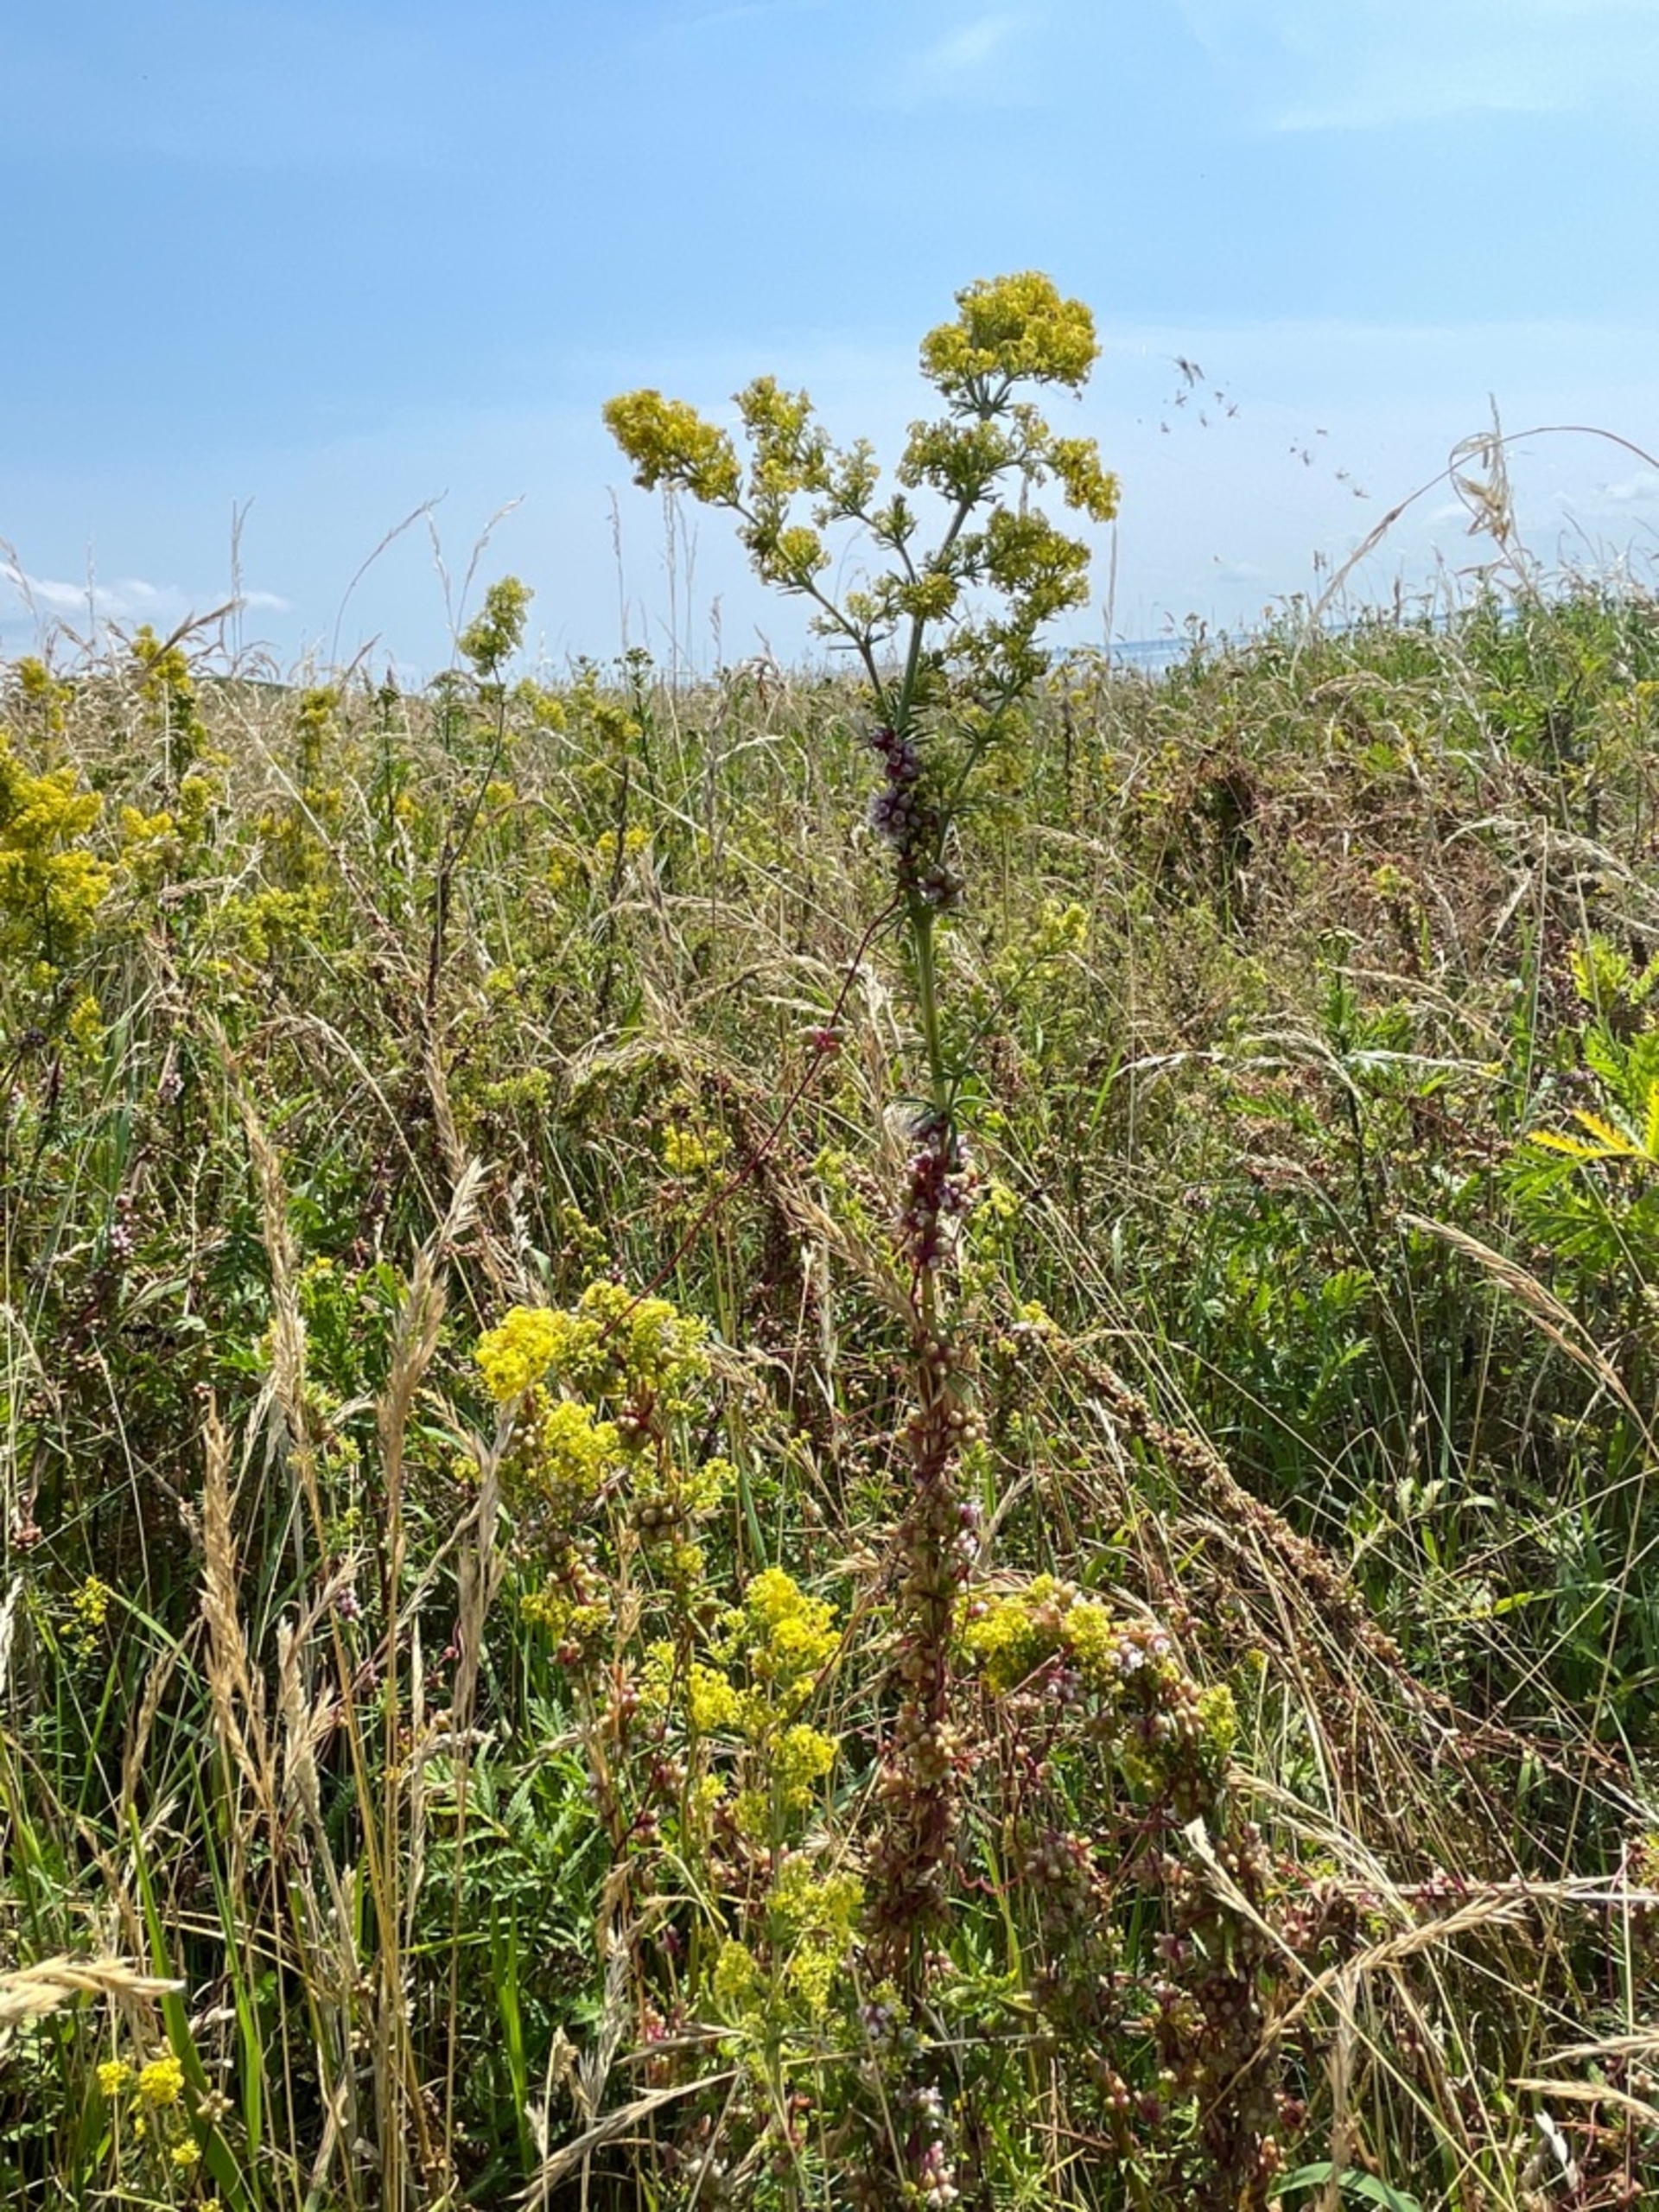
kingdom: Plantae
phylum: Tracheophyta
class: Magnoliopsida
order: Solanales
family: Convolvulaceae
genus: Cuscuta
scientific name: Cuscuta europaea
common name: Nælde-silke
